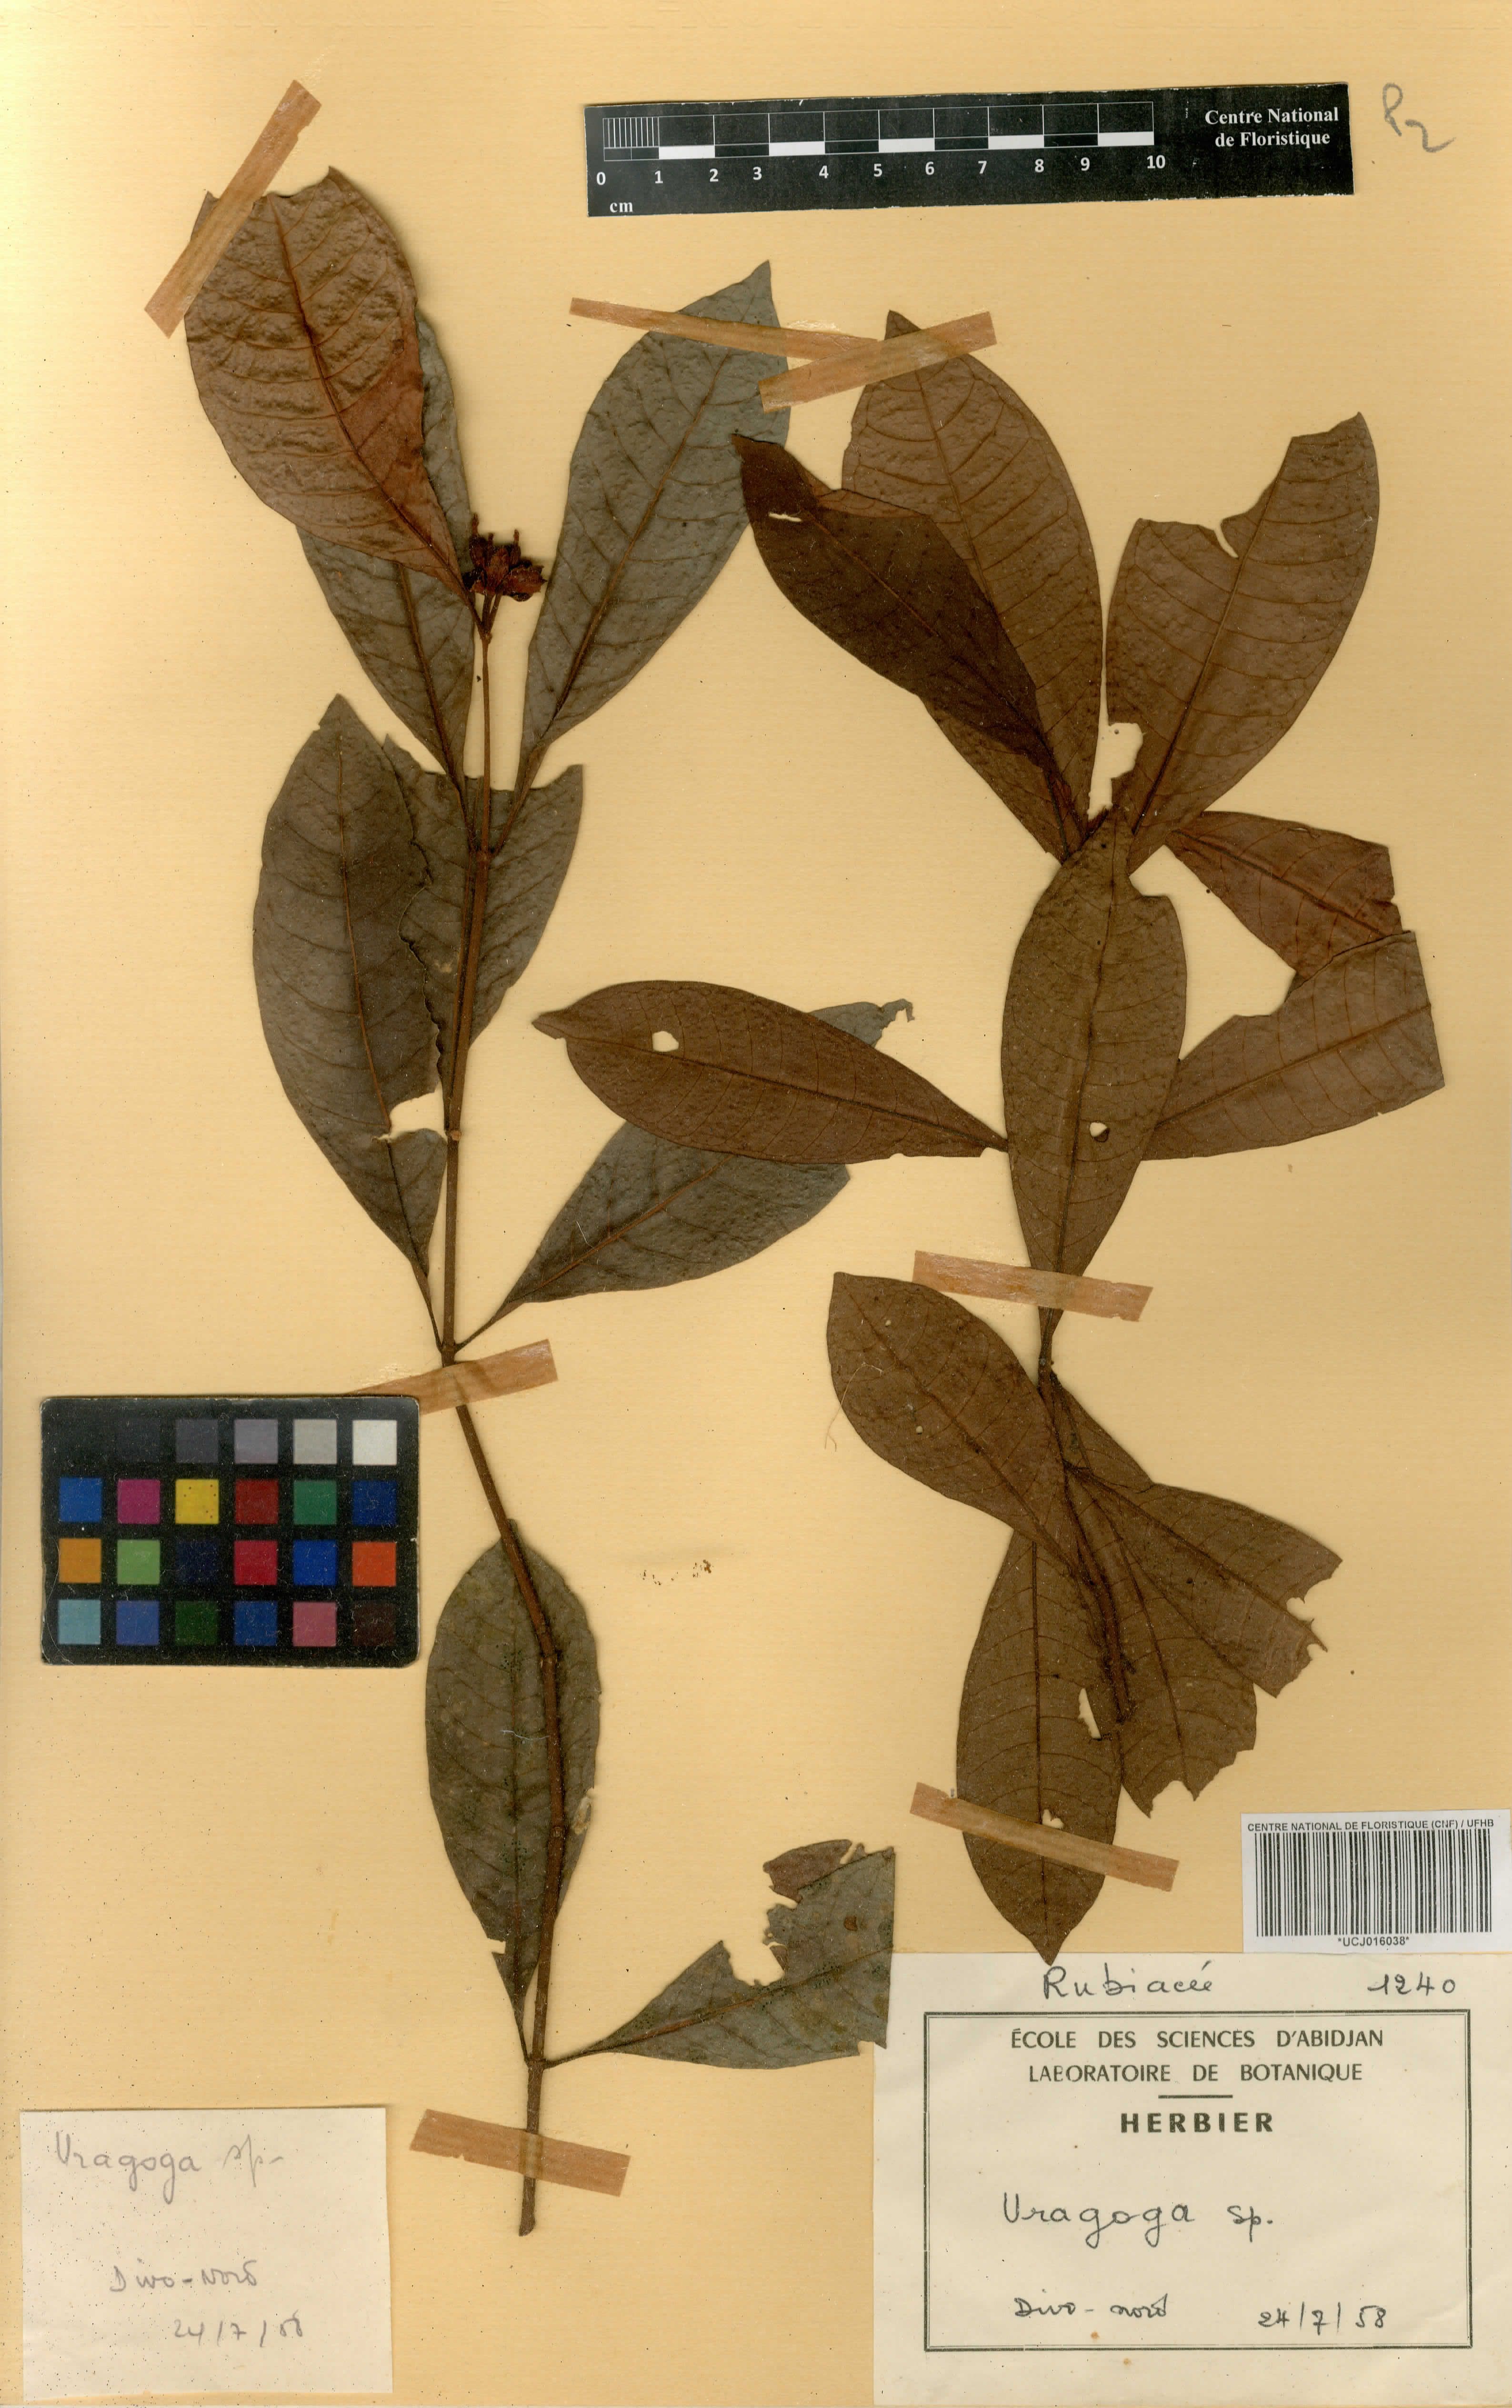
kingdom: Plantae
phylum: Tracheophyta
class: Magnoliopsida
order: Gentianales
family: Rubiaceae
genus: Psychotria
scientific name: Psychotria
